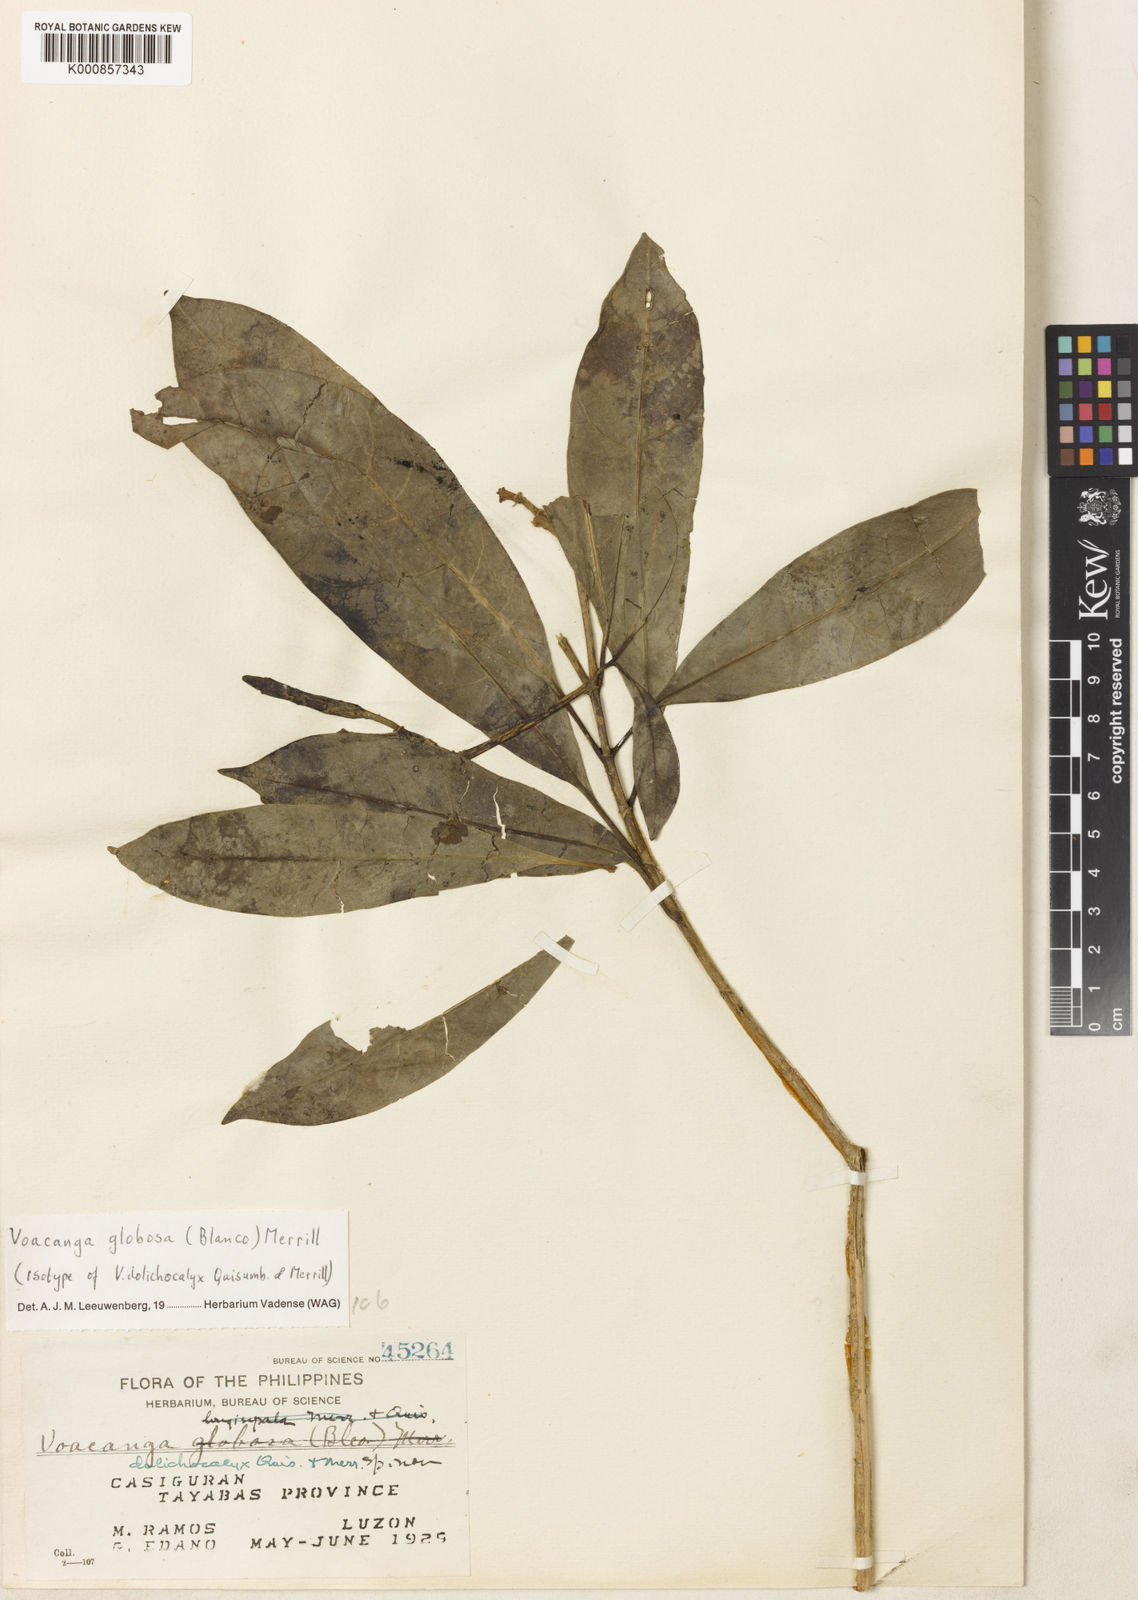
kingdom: Plantae
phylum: Tracheophyta
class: Magnoliopsida
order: Gentianales
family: Apocynaceae
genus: Voacanga
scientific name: Voacanga globosa
